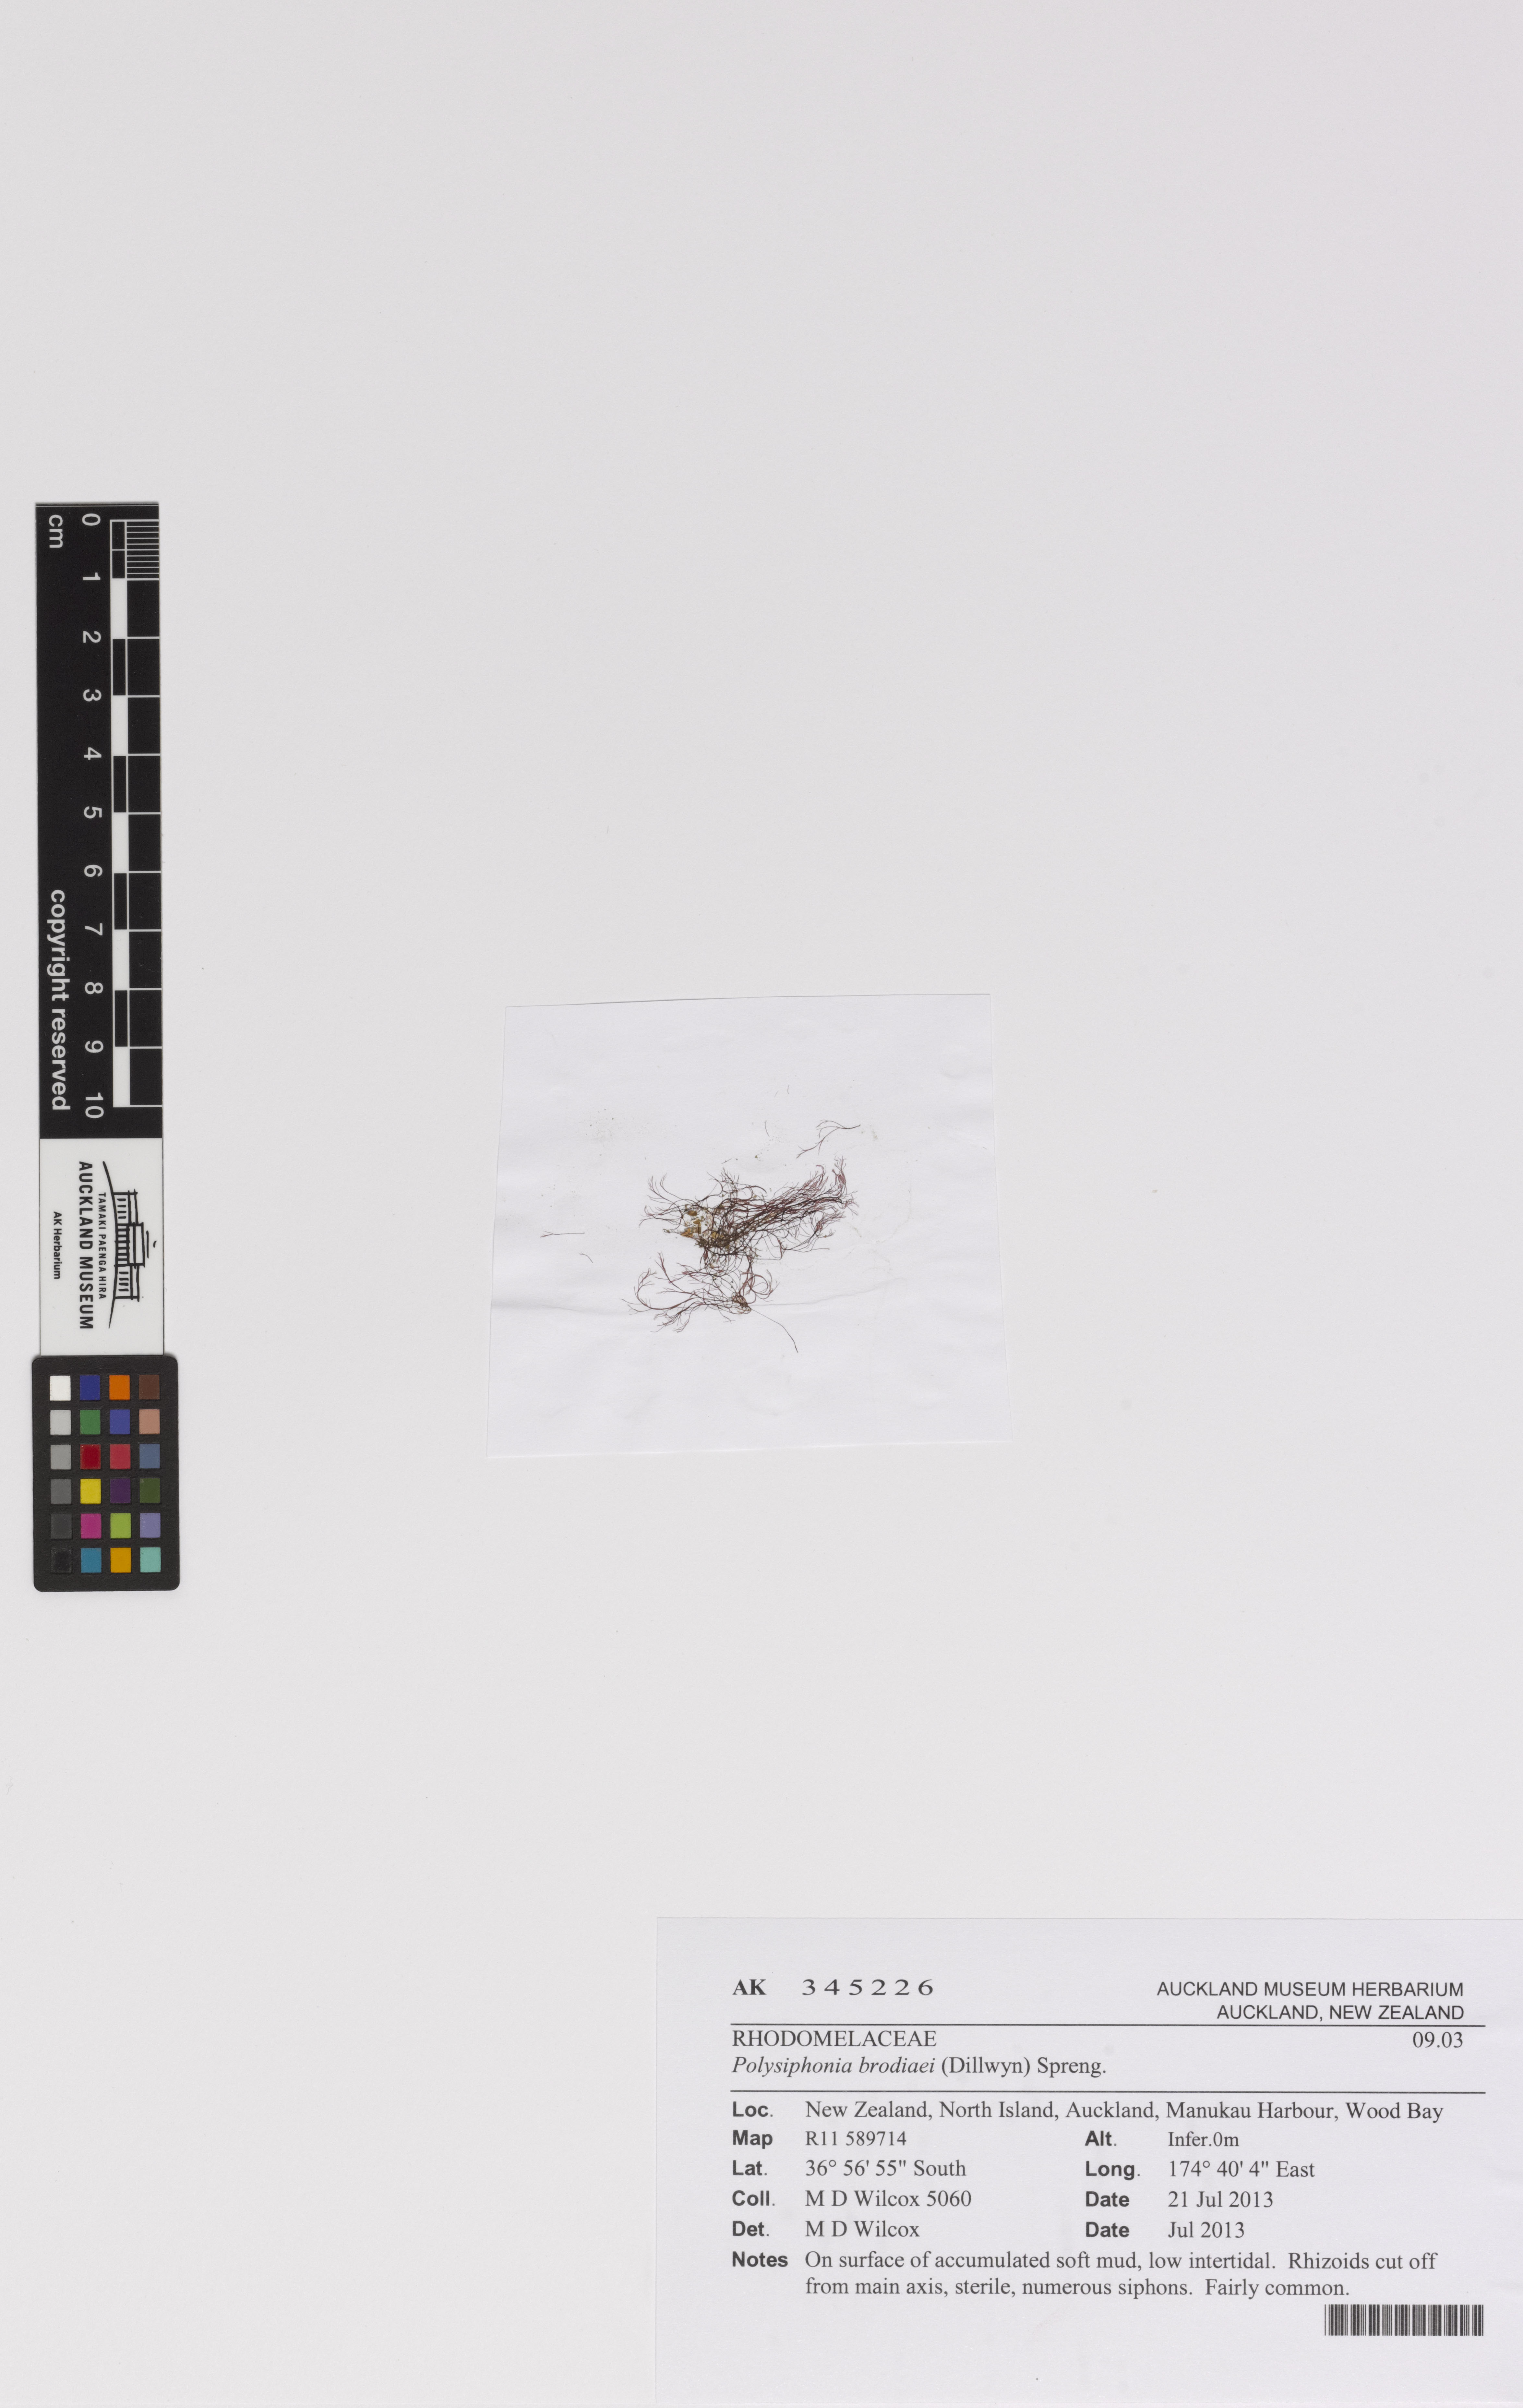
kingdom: Plantae
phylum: Rhodophyta
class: Florideophyceae
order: Ceramiales
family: Rhodomelaceae
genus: Vertebrata
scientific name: Vertebrata isogona
